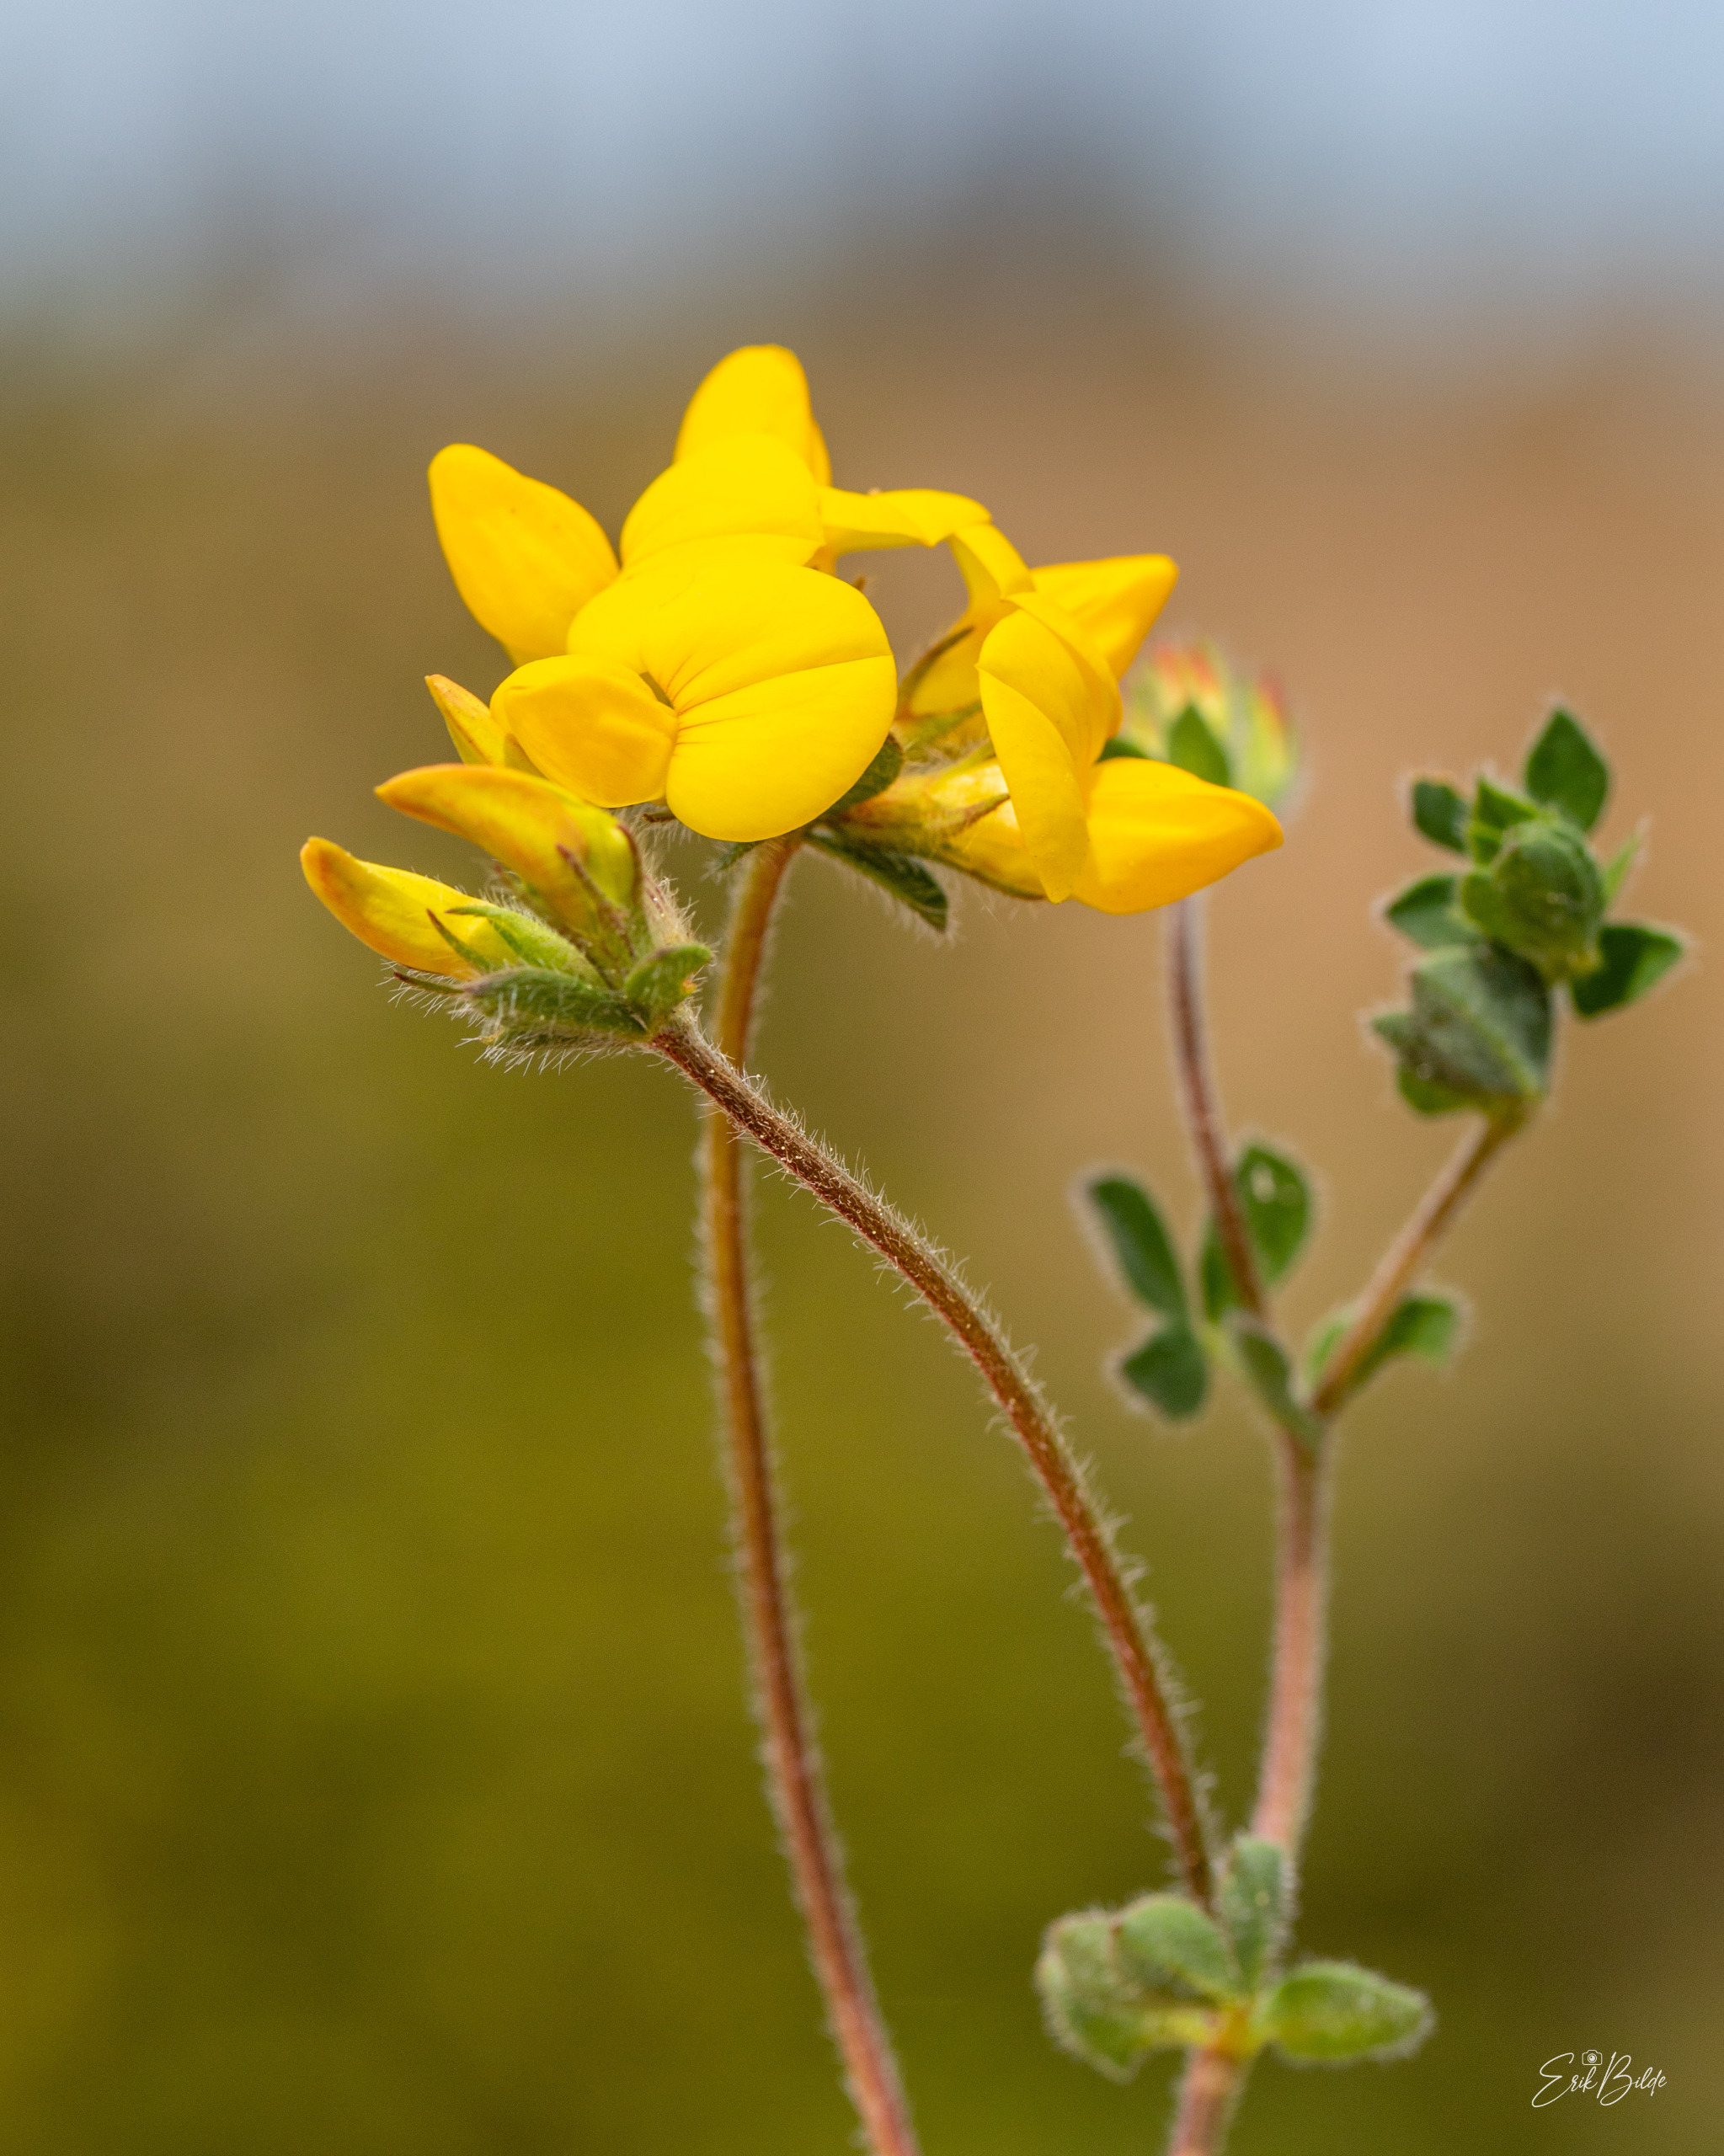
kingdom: Plantae
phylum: Tracheophyta
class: Magnoliopsida
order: Fabales
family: Fabaceae
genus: Lotus
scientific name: Lotus corniculatus
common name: Almindelig kællingetand
